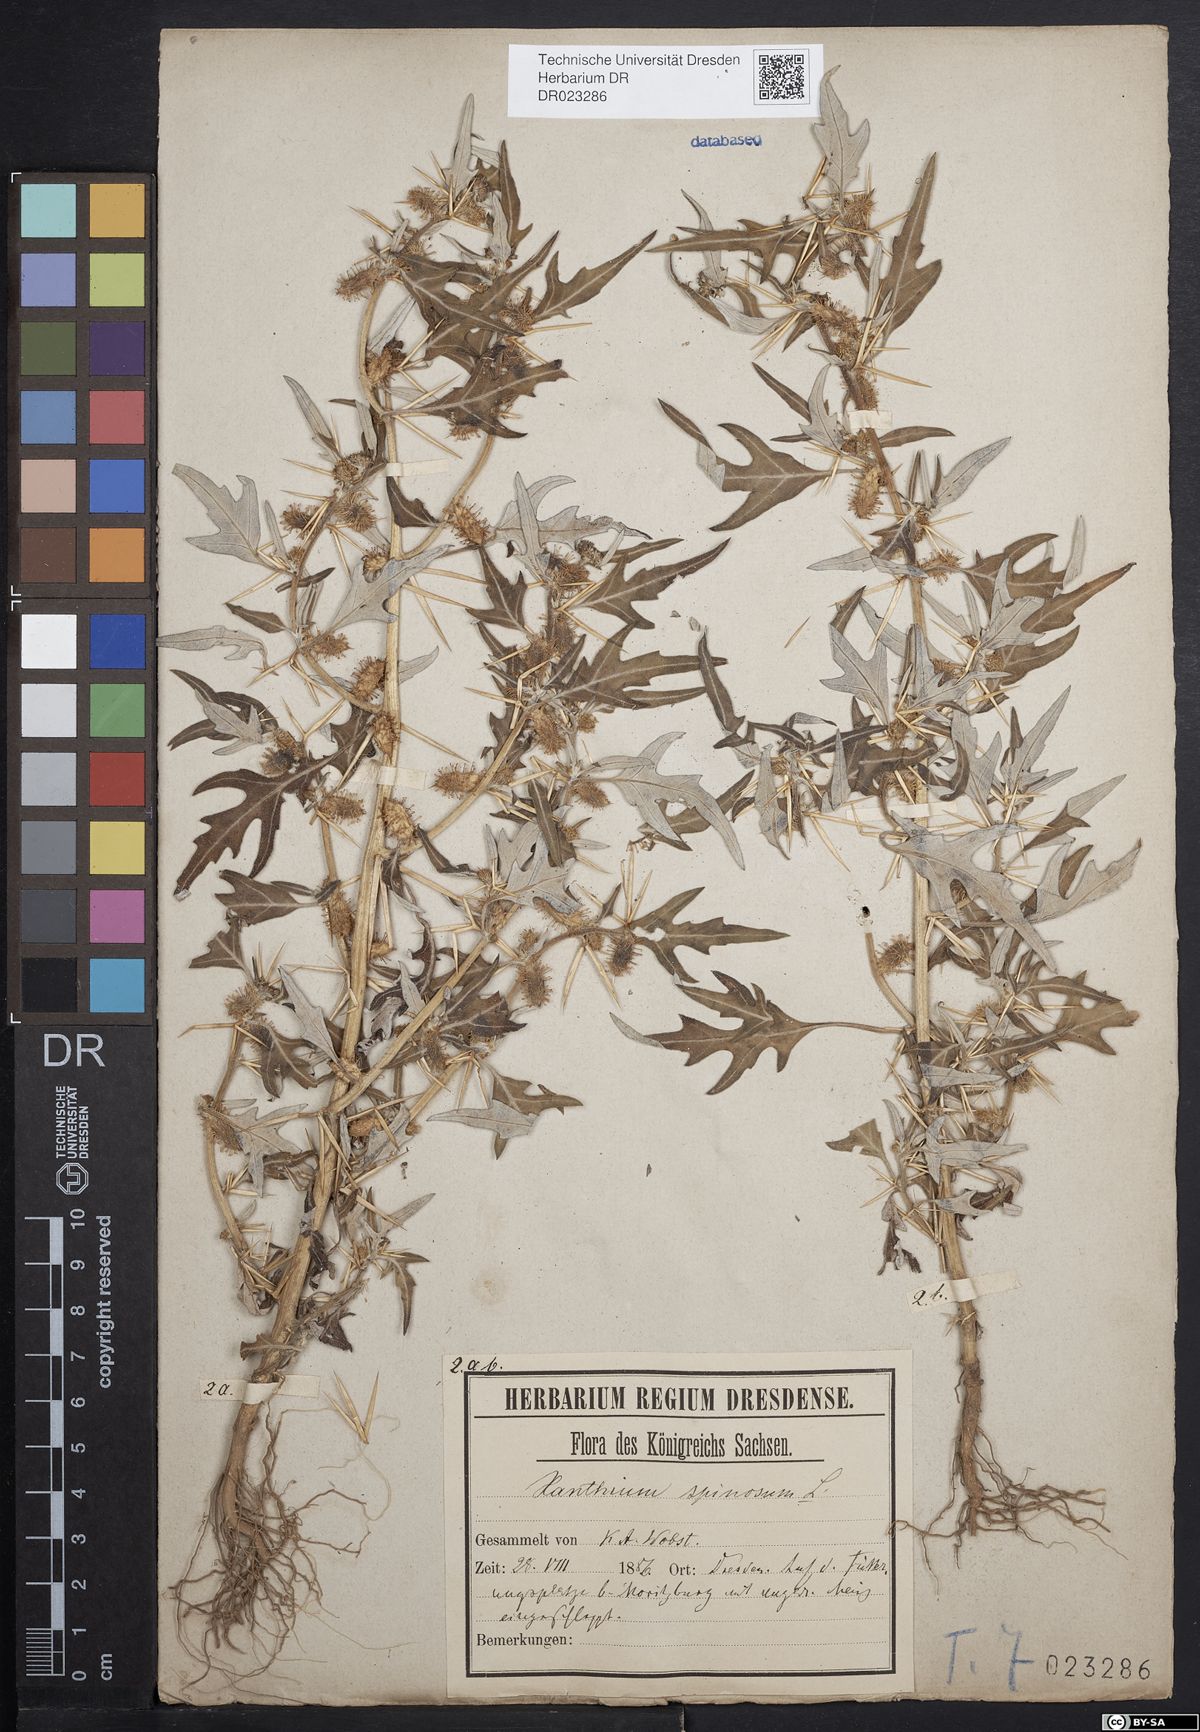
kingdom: Plantae
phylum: Tracheophyta
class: Magnoliopsida
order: Asterales
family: Asteraceae
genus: Xanthium
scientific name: Xanthium spinosum
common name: Spiny cocklebur
